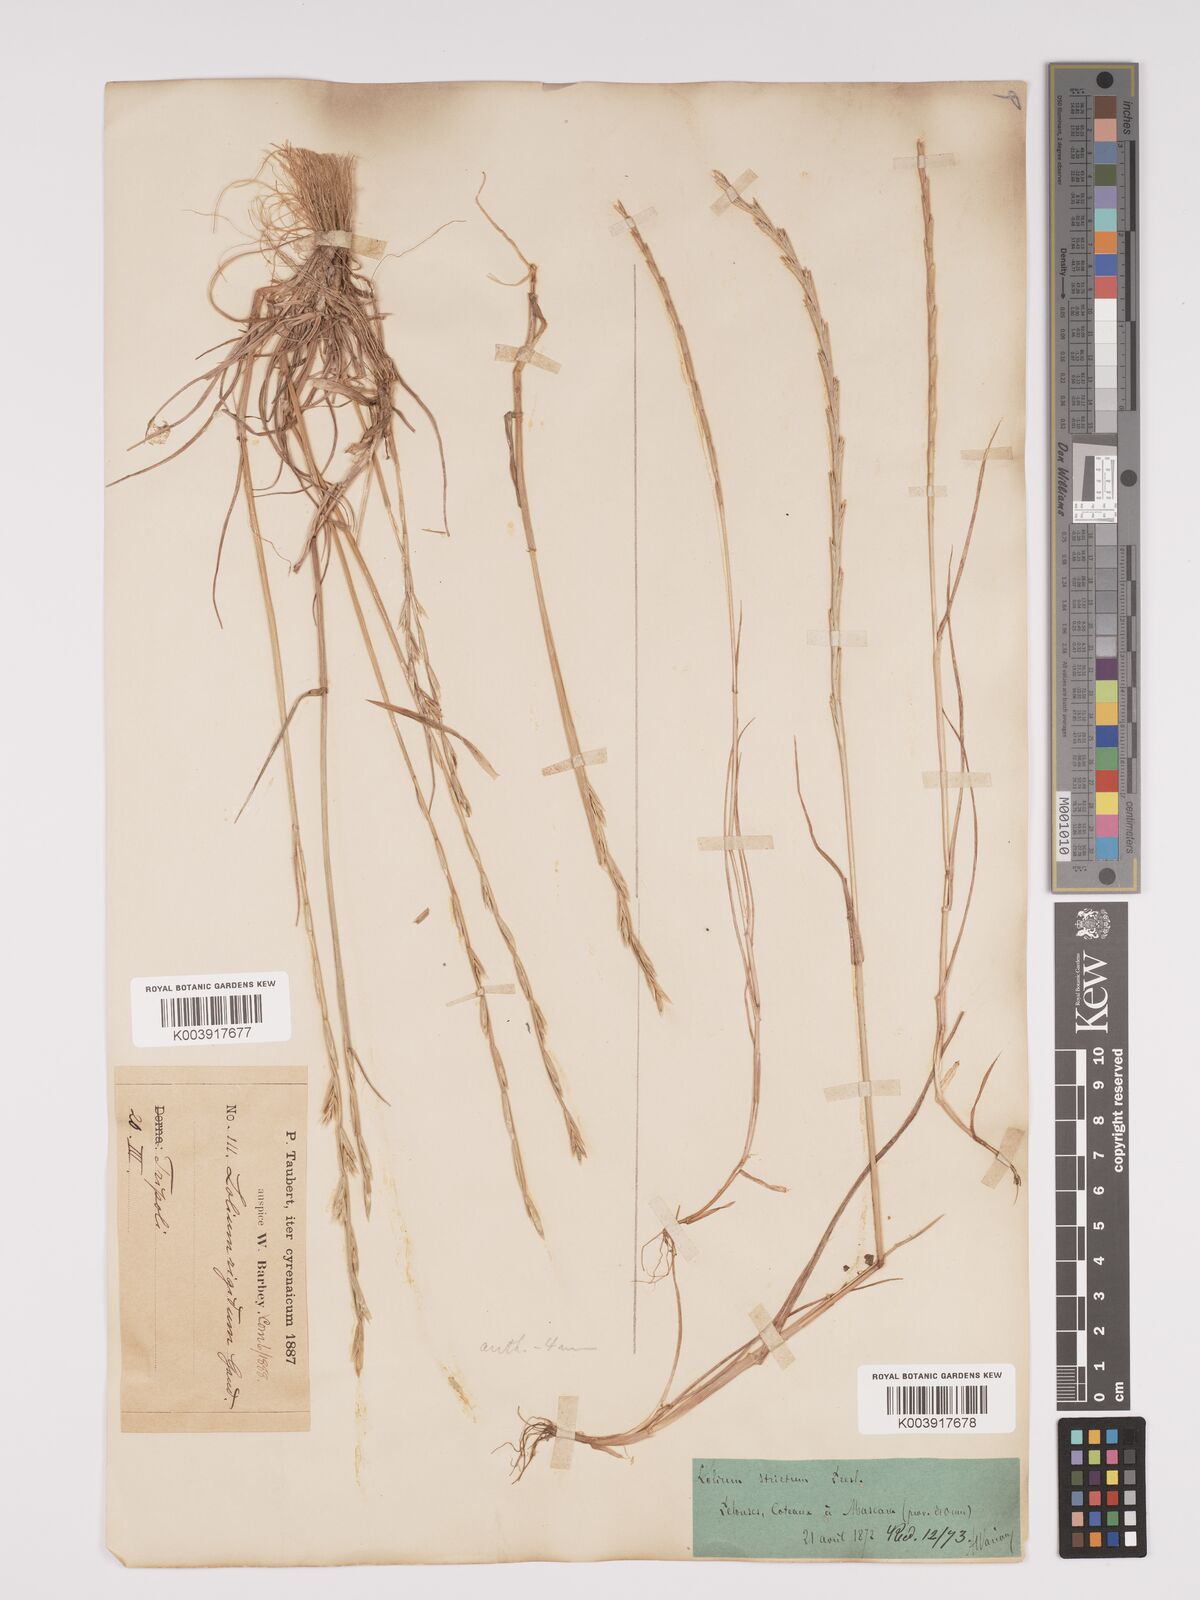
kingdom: Plantae
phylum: Tracheophyta
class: Liliopsida
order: Poales
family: Poaceae
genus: Lolium
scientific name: Lolium rigidum
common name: Wimmera ryegrass
